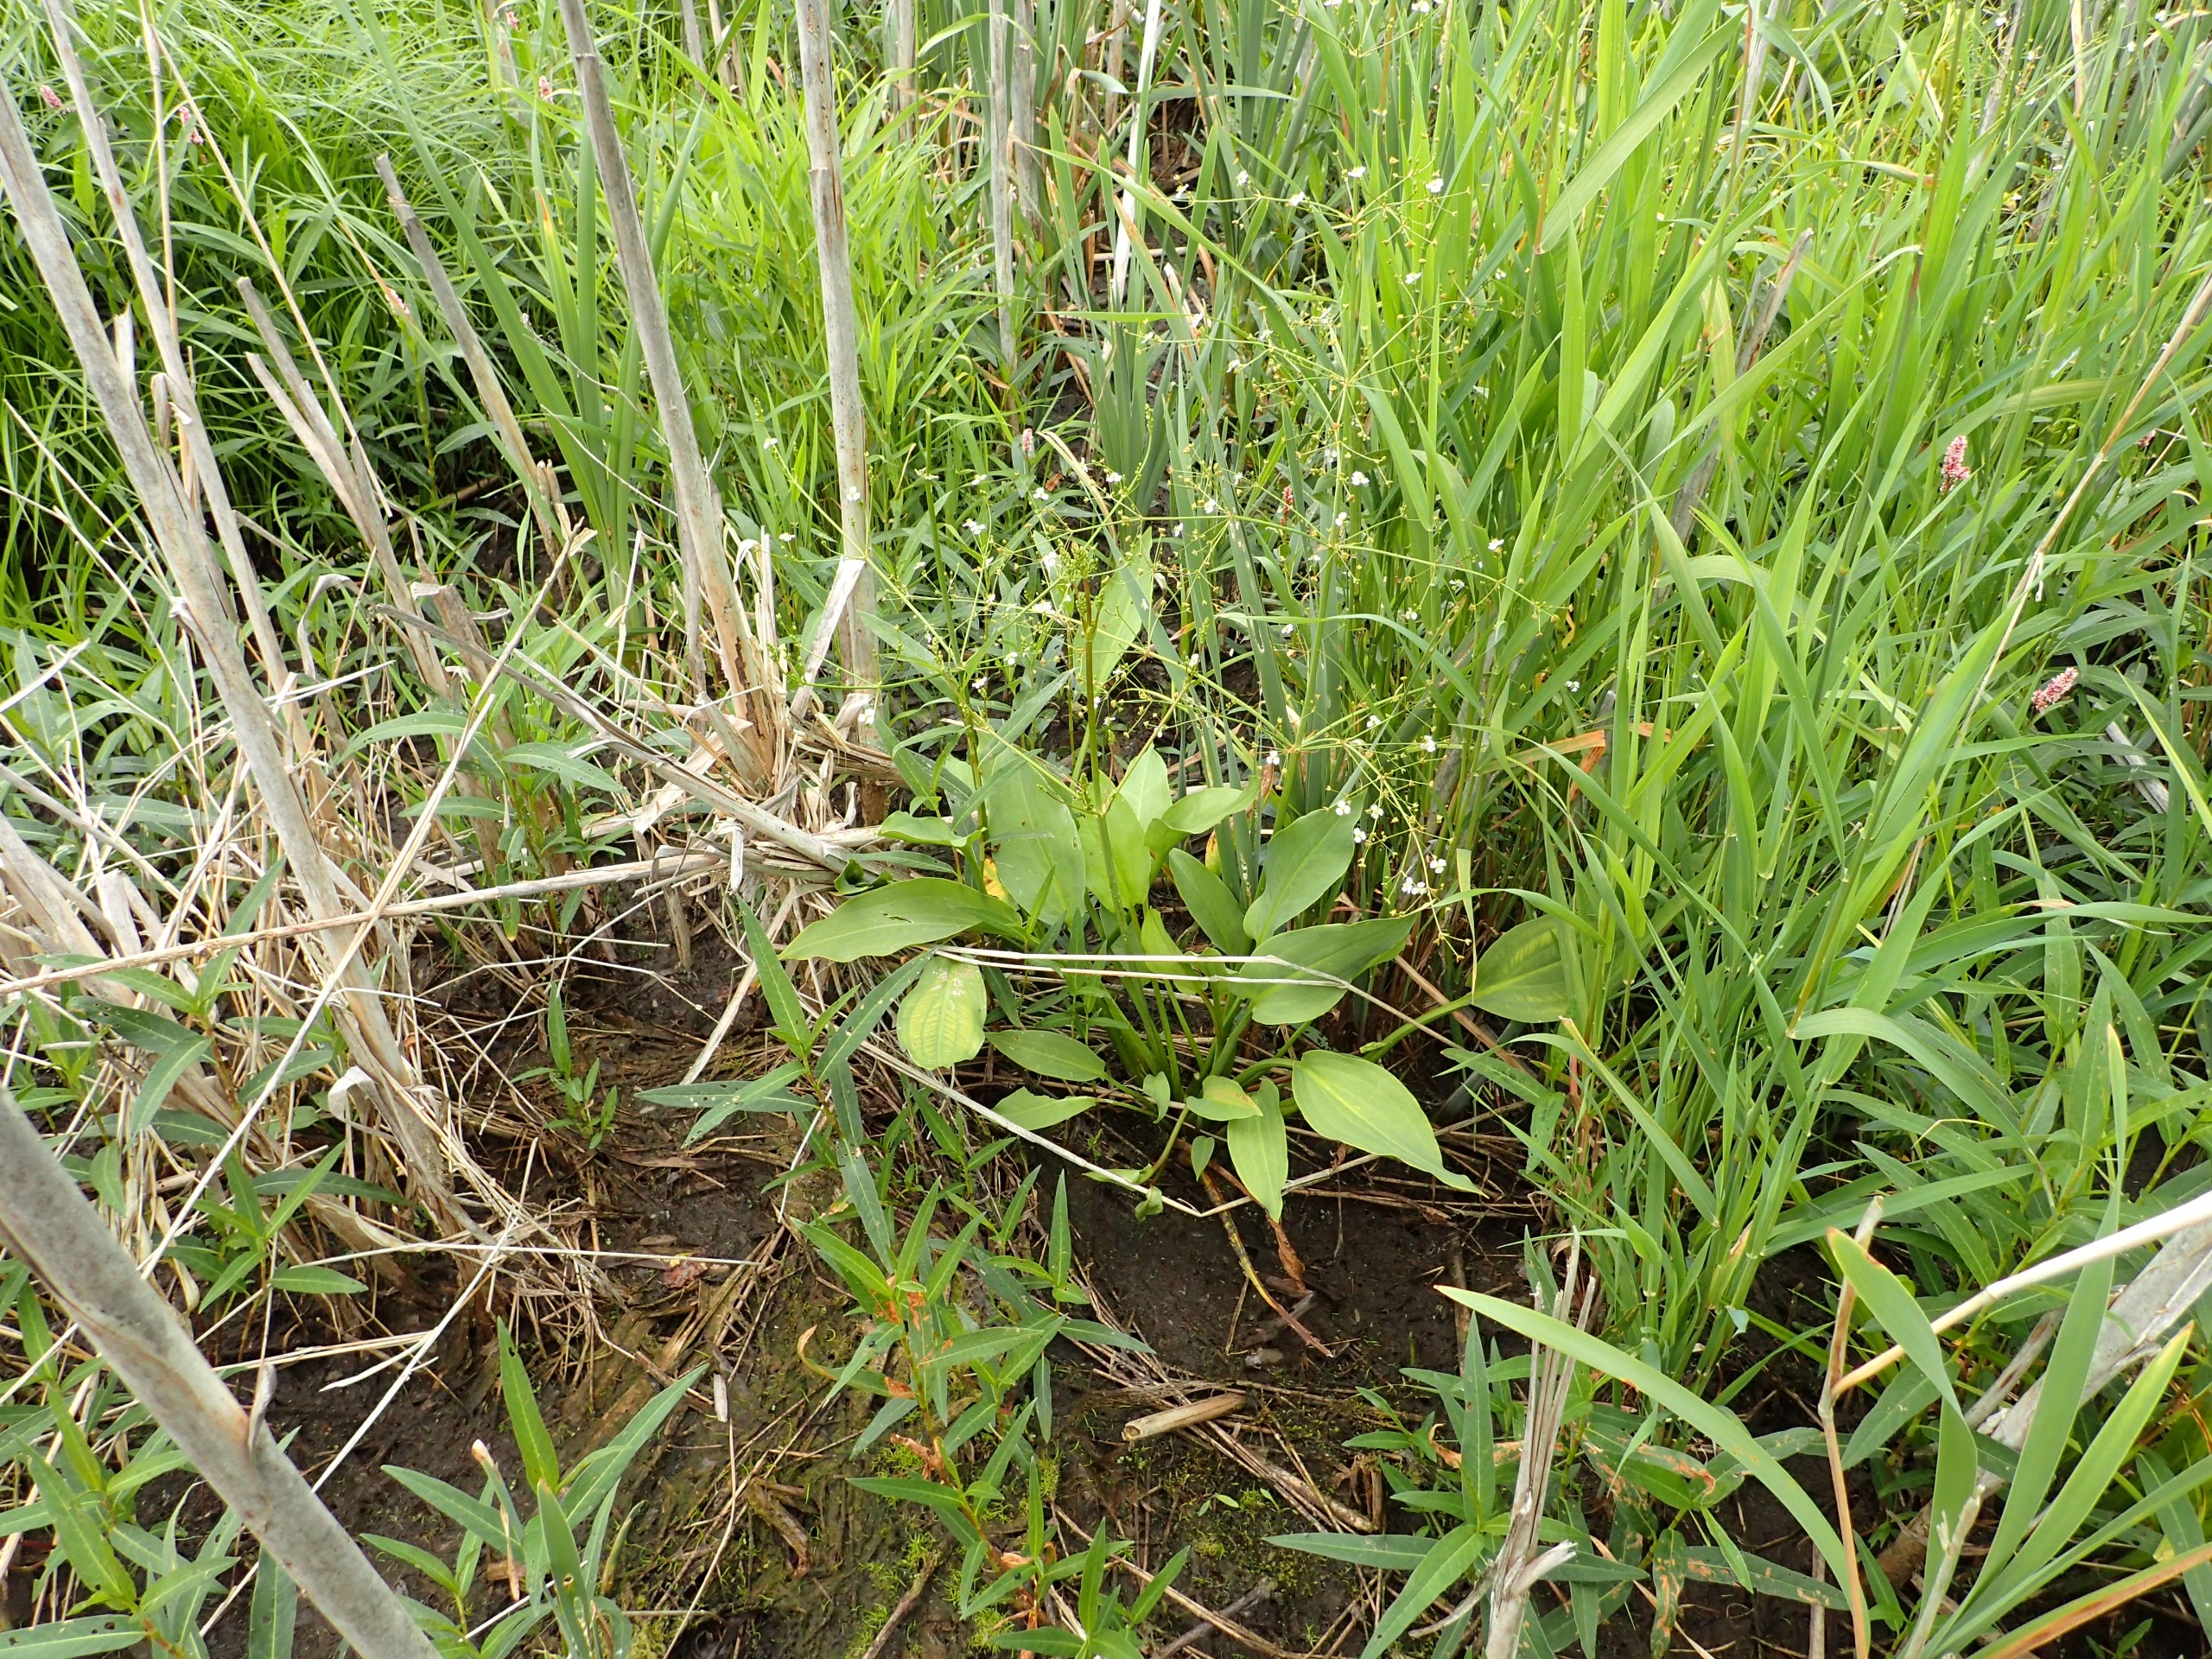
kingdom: Plantae
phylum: Tracheophyta
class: Liliopsida
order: Alismatales
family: Alismataceae
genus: Alisma
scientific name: Alisma plantago-aquatica
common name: Vejbred-skeblad
